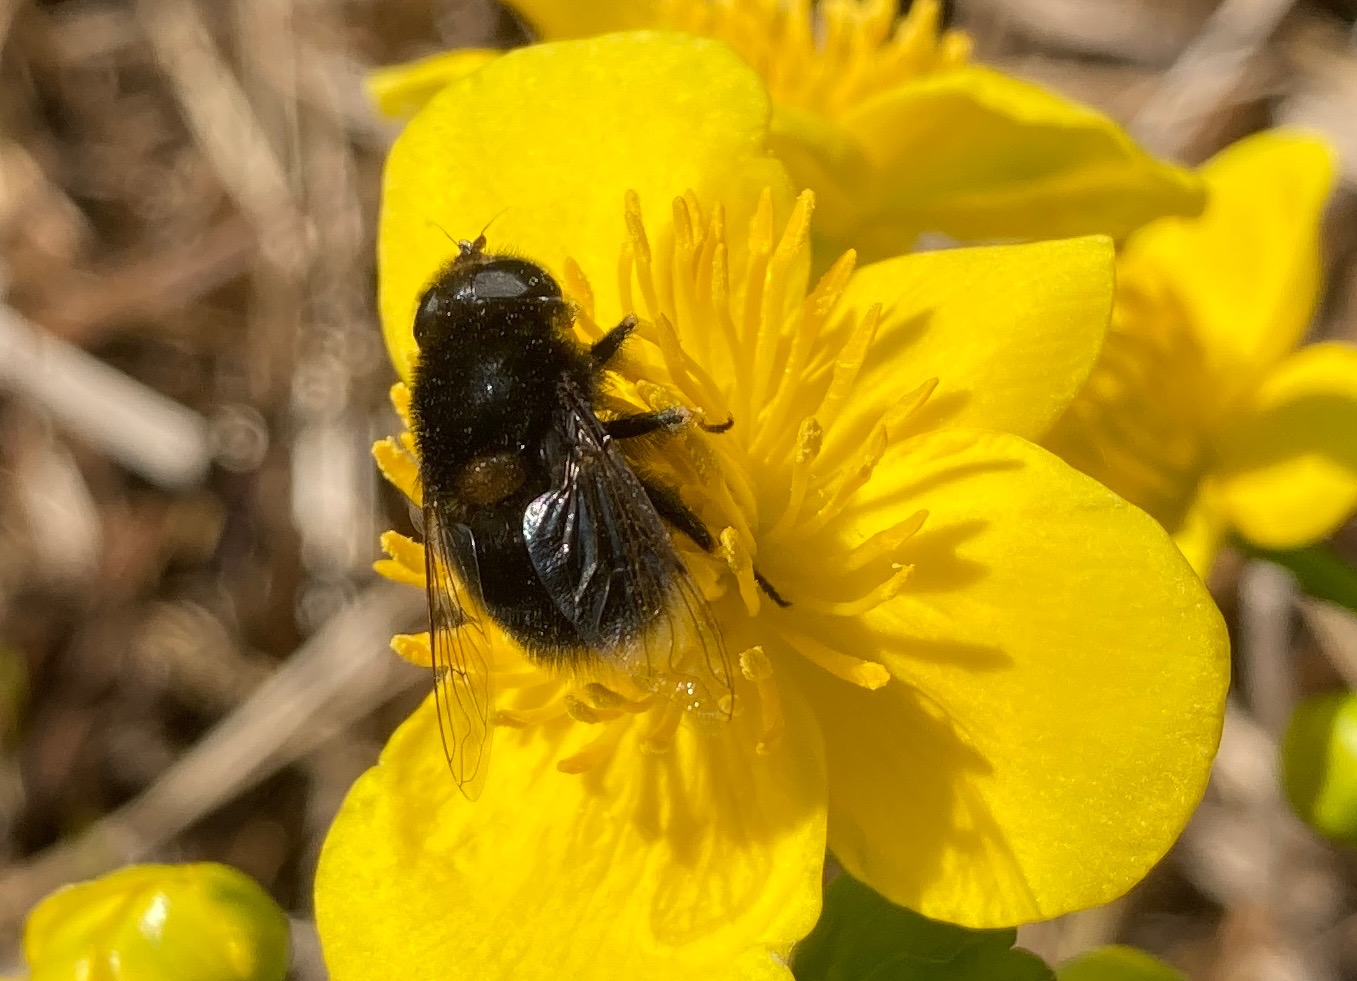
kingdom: Animalia
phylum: Arthropoda
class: Insecta
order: Diptera
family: Syrphidae
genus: Eristalis
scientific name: Eristalis intricaria
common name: Håret dyndflue
